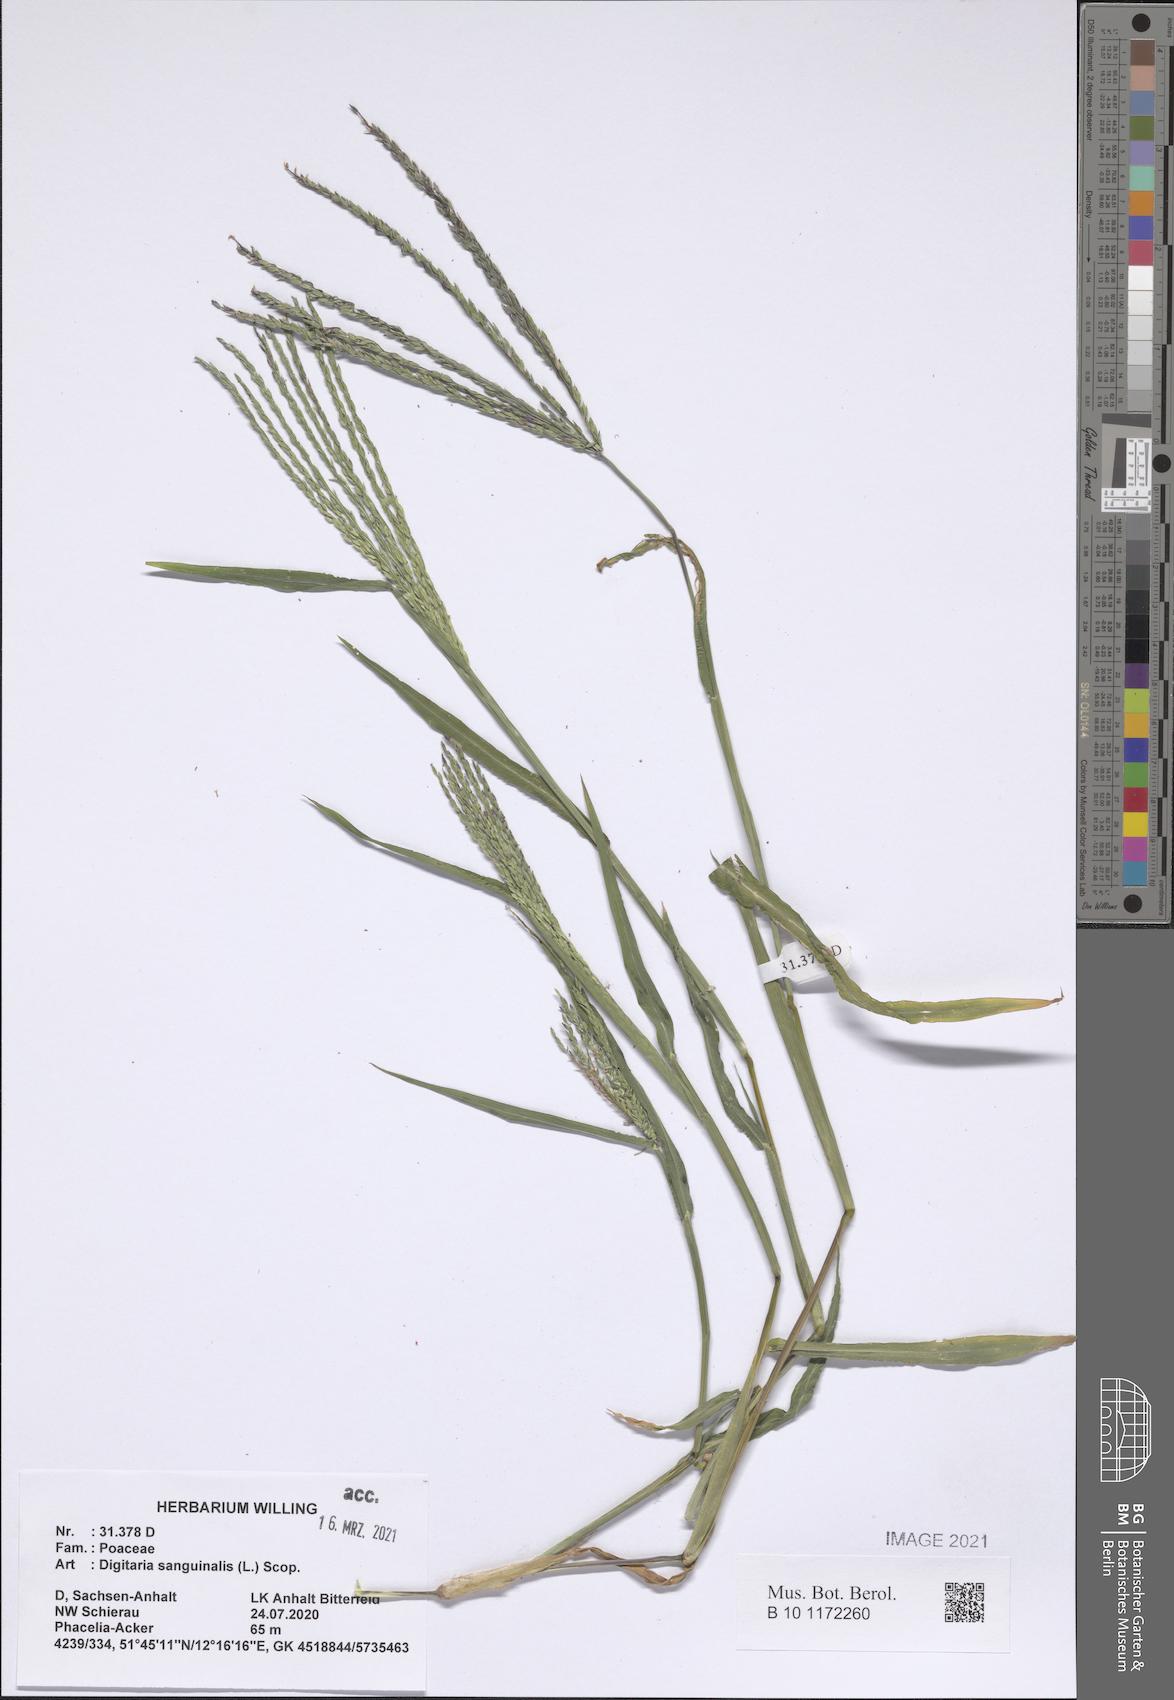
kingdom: Plantae
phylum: Tracheophyta
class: Liliopsida
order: Poales
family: Poaceae
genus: Digitaria
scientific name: Digitaria sanguinalis
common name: Hairy crabgrass
